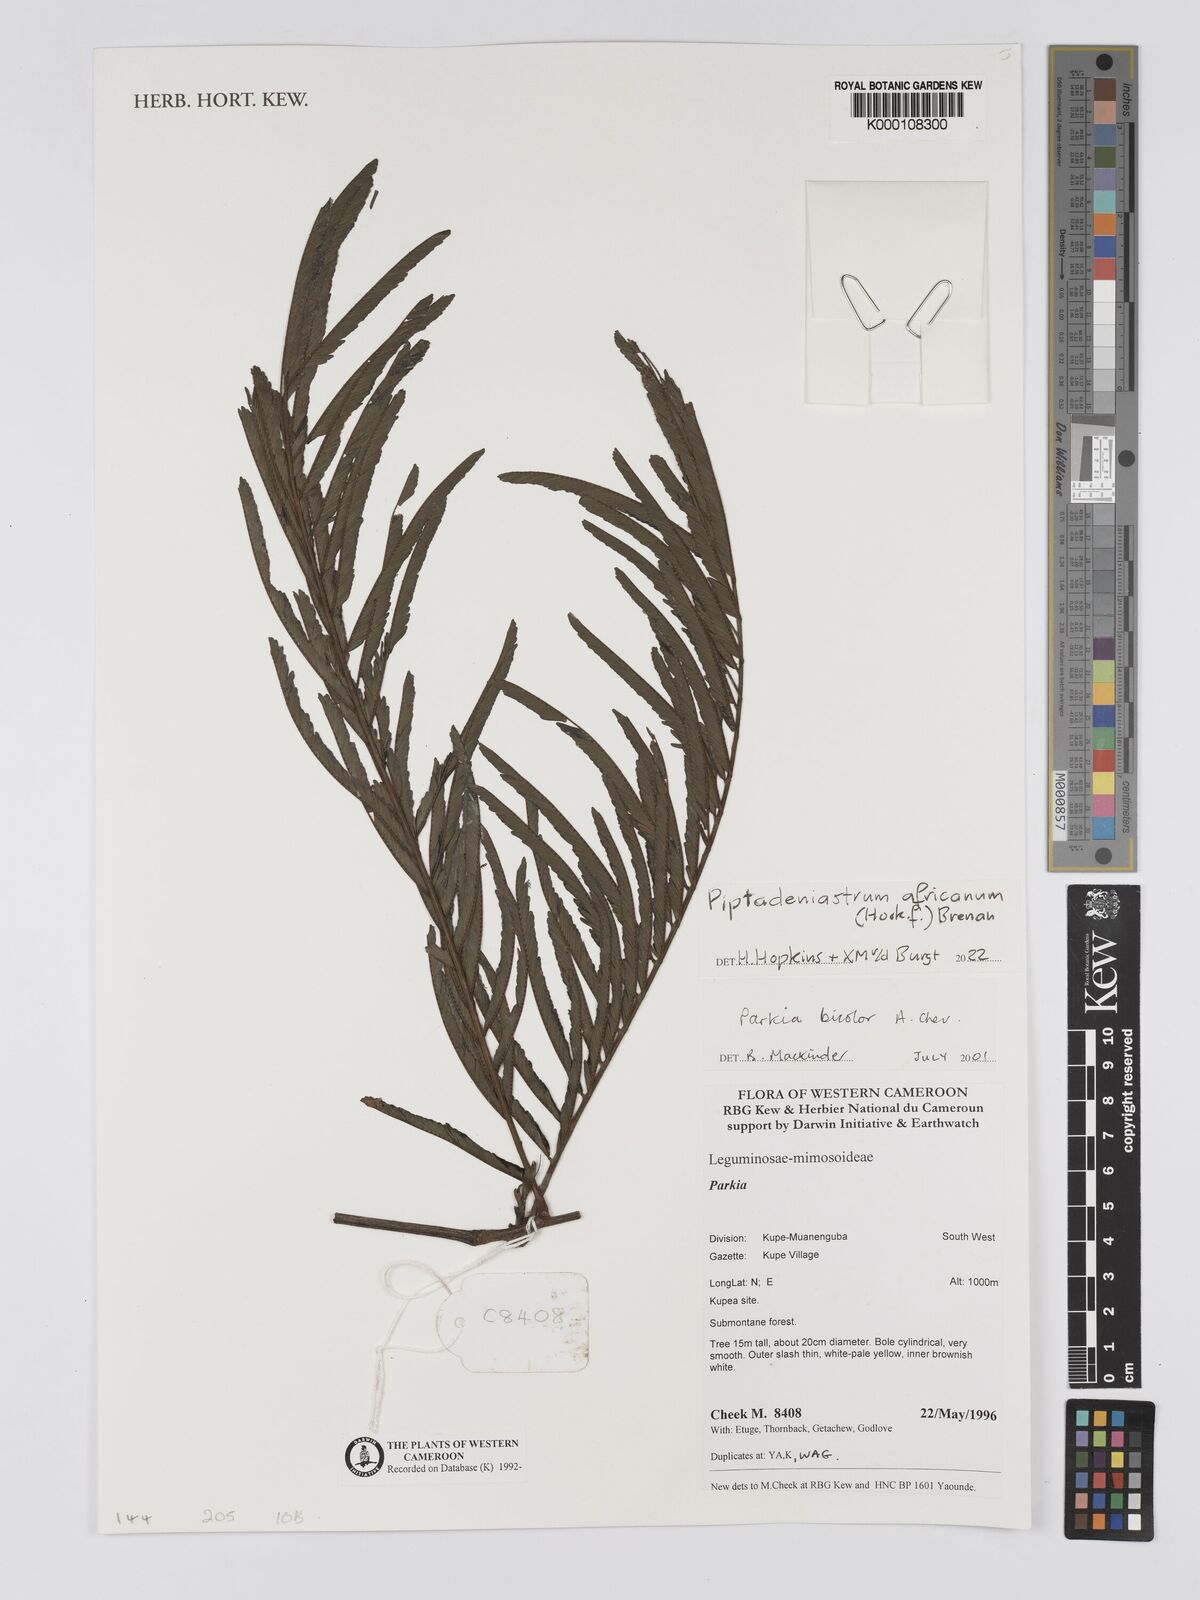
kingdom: Plantae
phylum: Tracheophyta
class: Magnoliopsida
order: Fabales
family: Fabaceae
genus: Parkia
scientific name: Parkia bicolor
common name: African locust-bean
